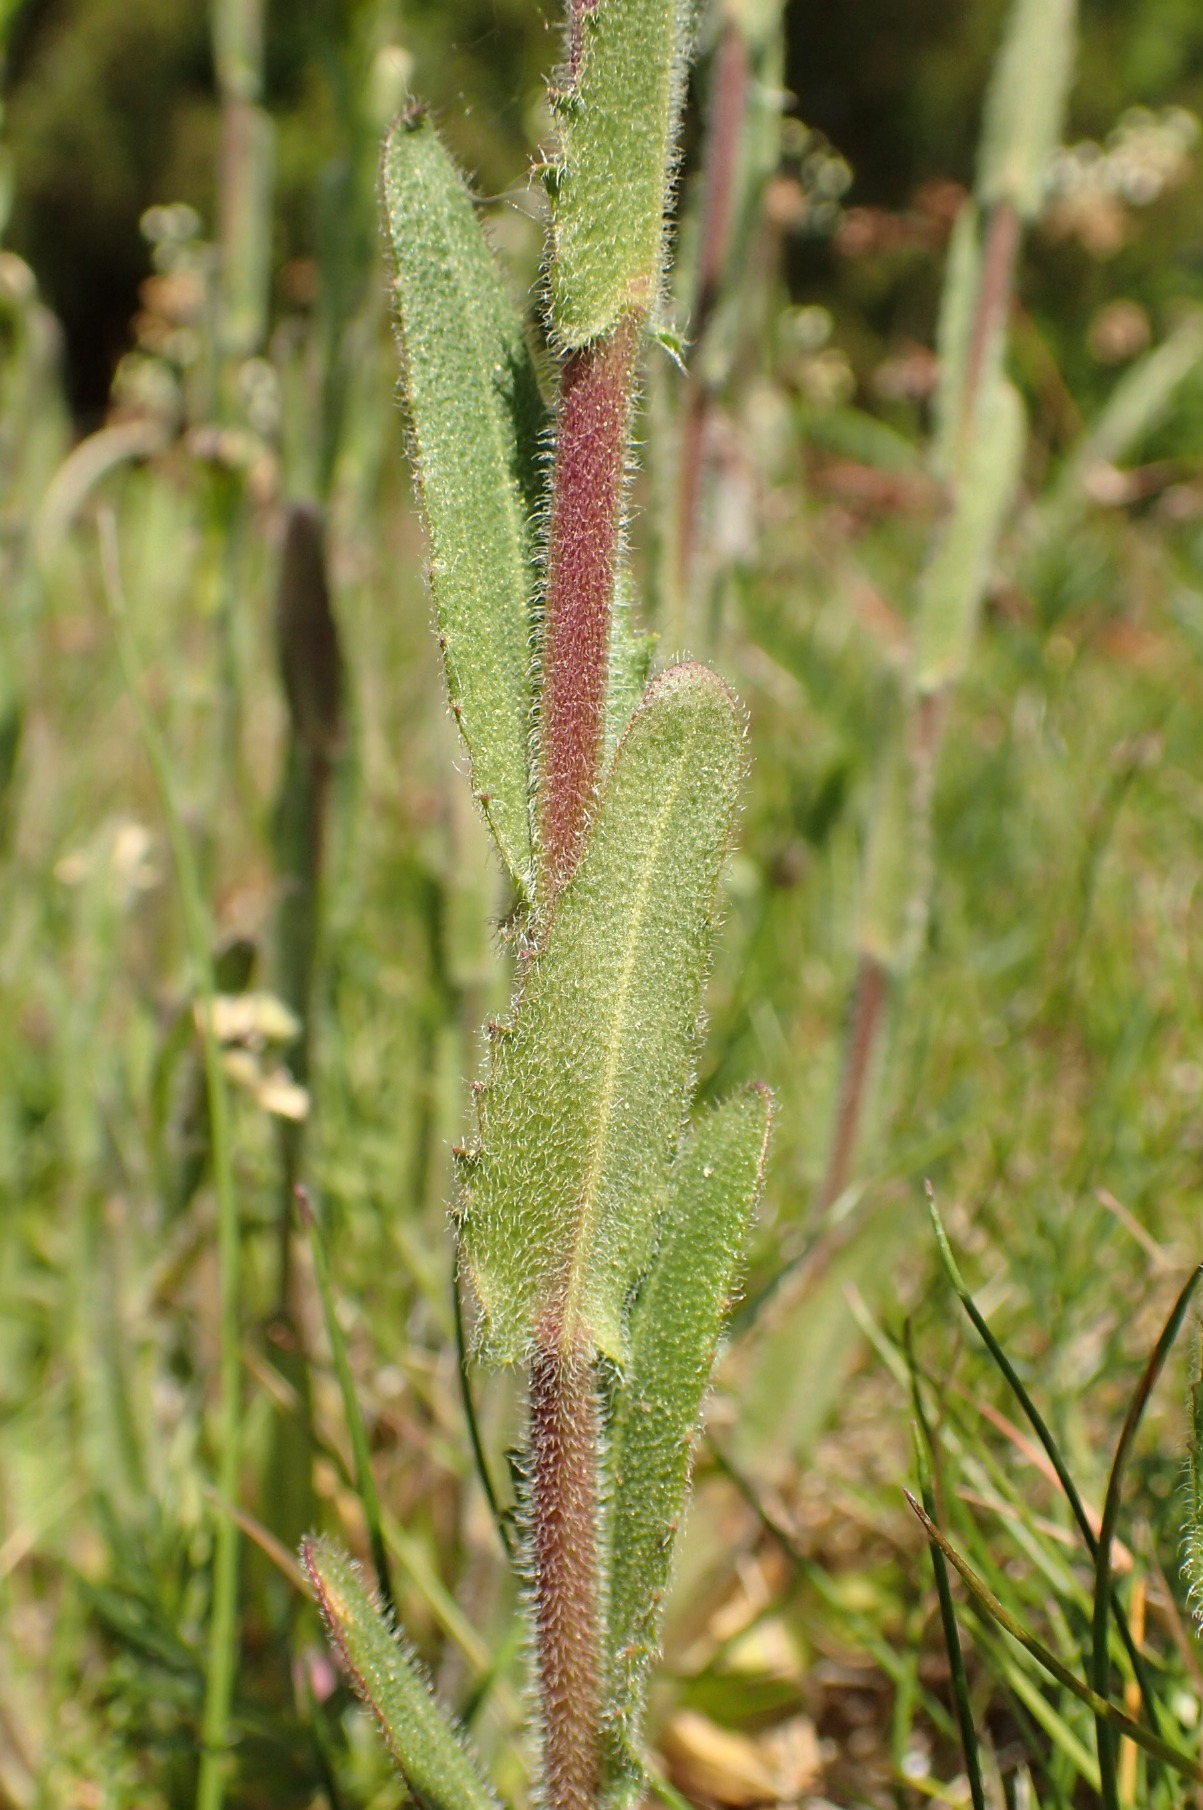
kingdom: Plantae
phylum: Tracheophyta
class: Magnoliopsida
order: Brassicales
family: Brassicaceae
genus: Arabis
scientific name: Arabis hirsuta
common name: Stivhåret kalkkarse
